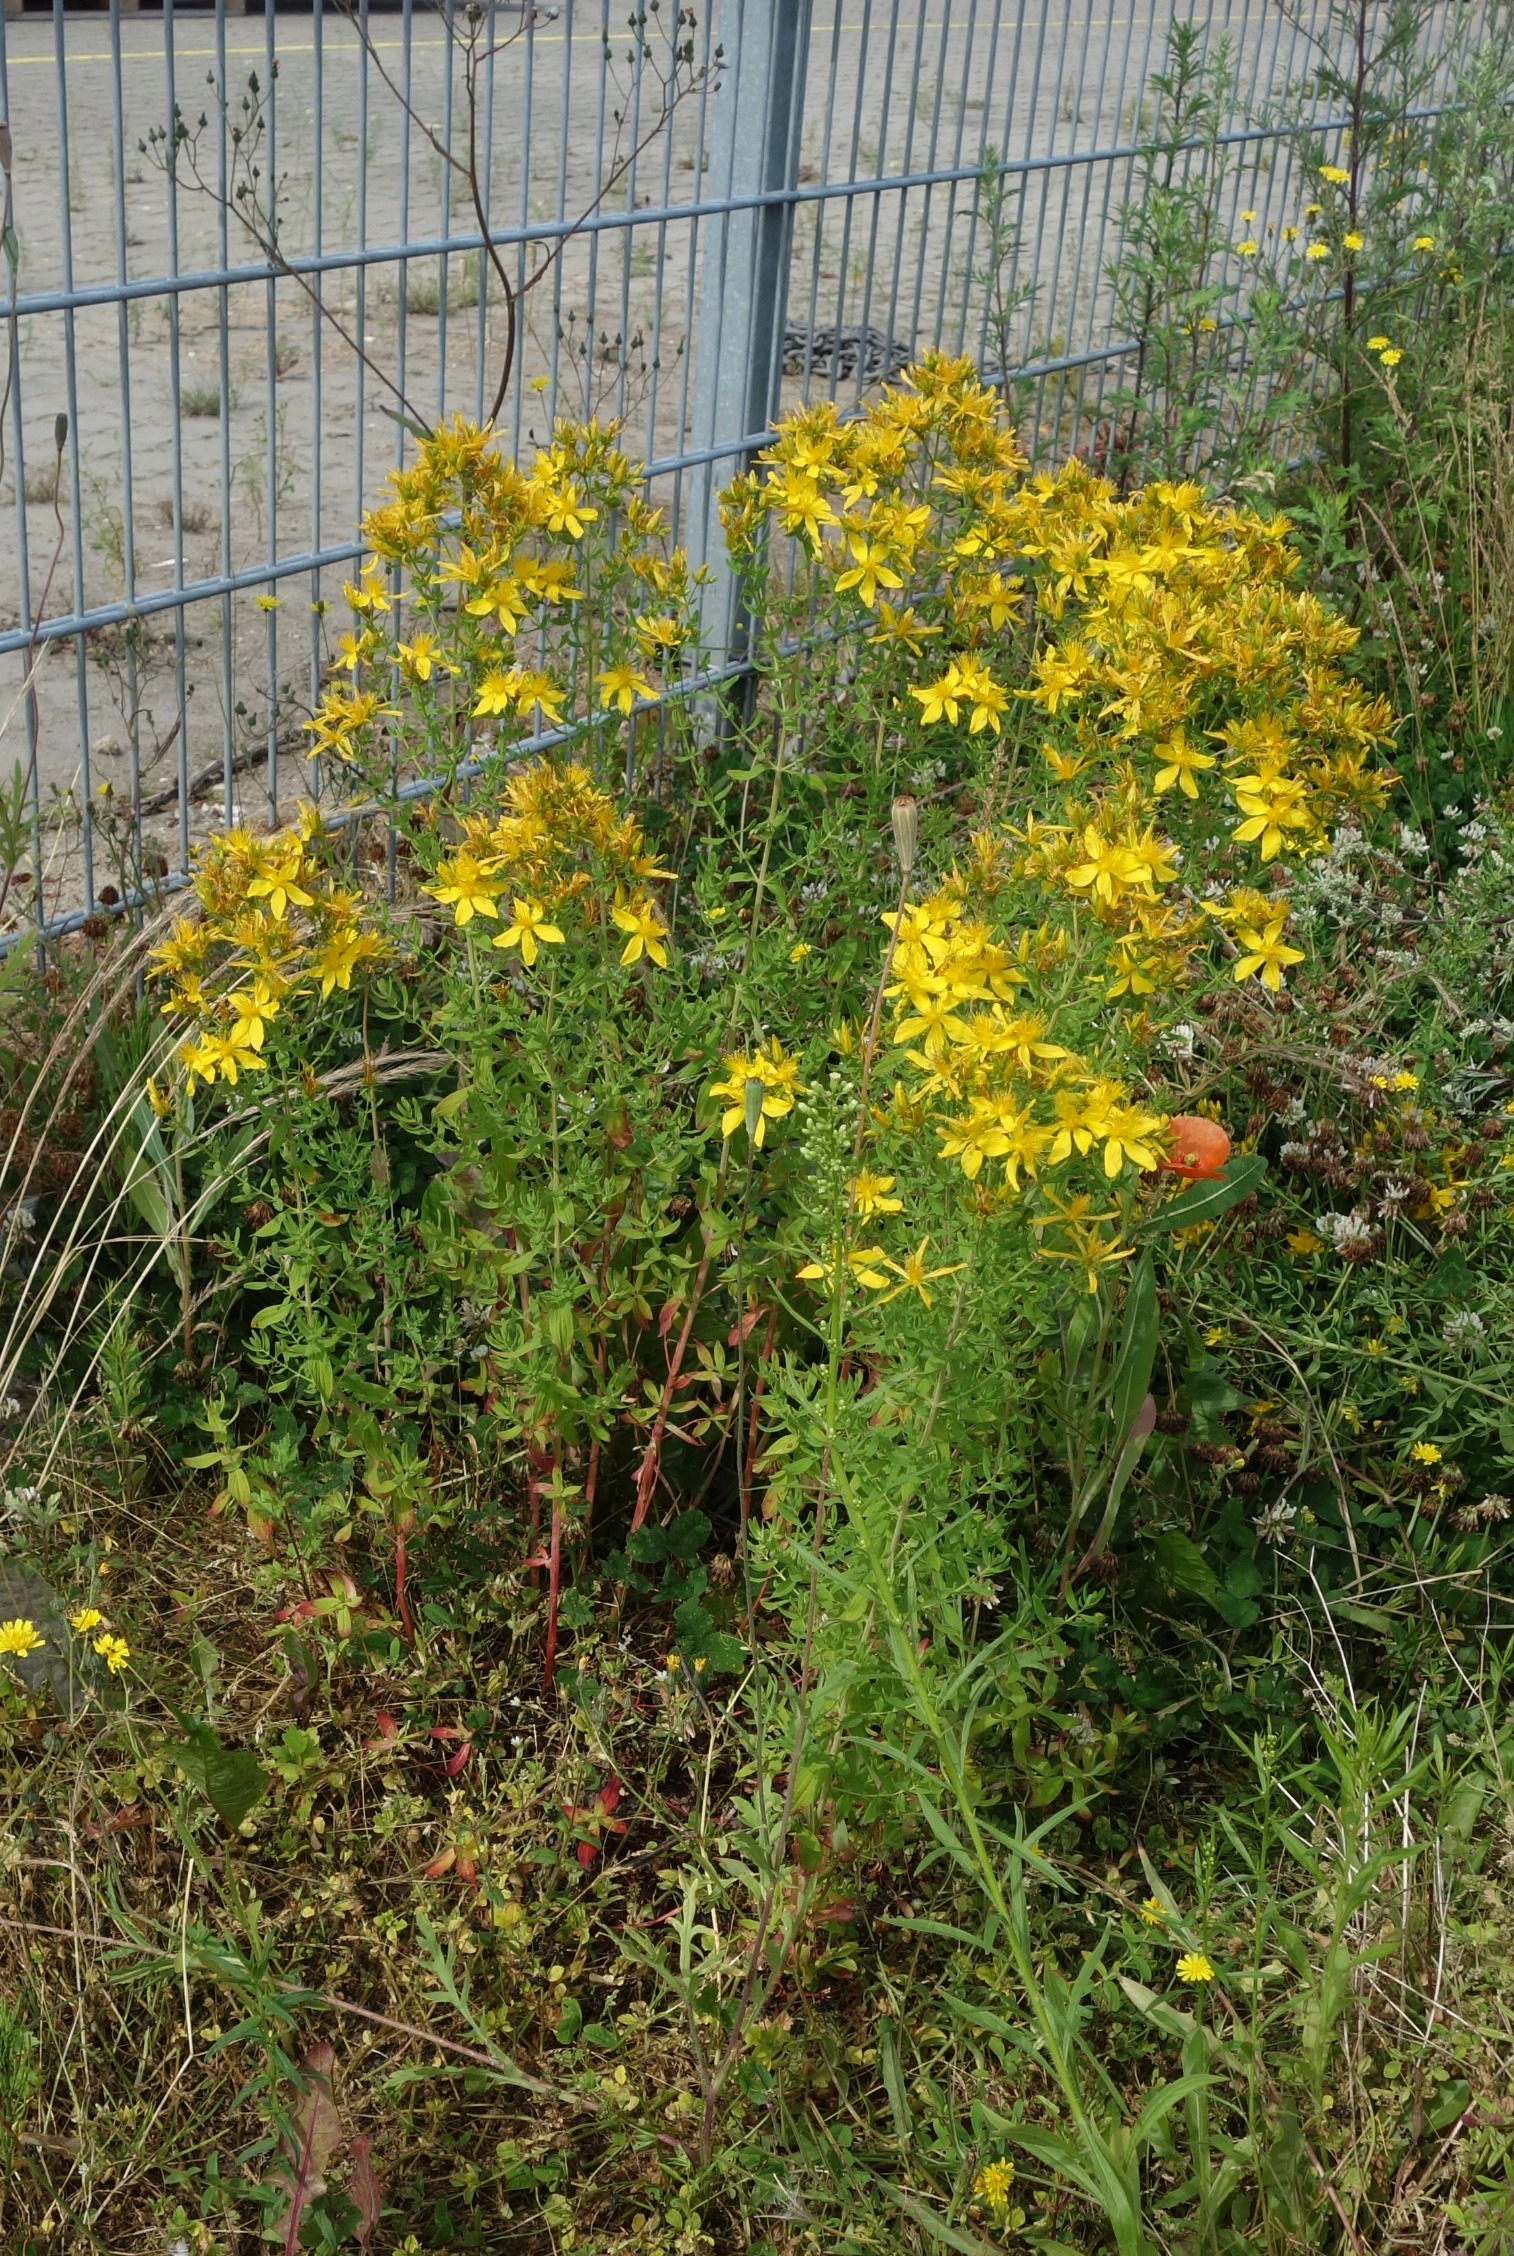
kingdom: Plantae
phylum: Tracheophyta
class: Magnoliopsida
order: Malpighiales
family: Hypericaceae
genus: Hypericum
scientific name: Hypericum perforatum
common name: Prikbladet perikon
